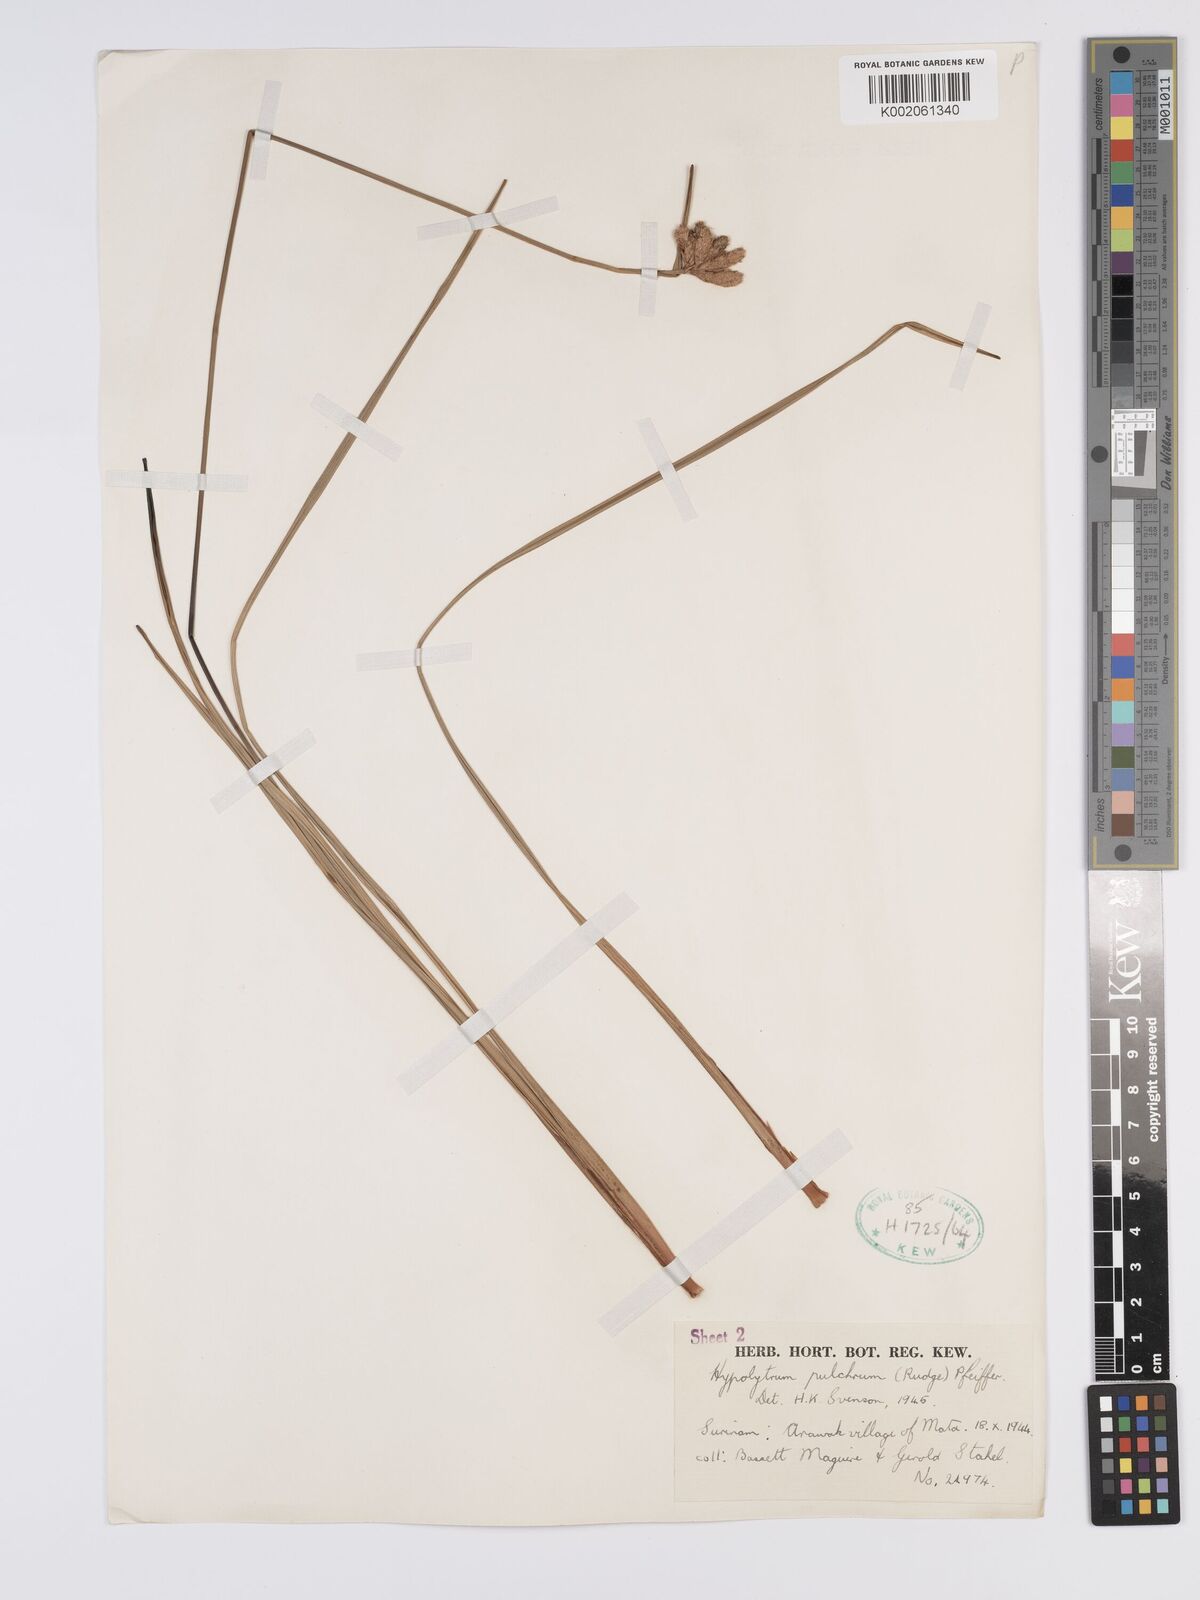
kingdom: Plantae
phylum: Tracheophyta
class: Liliopsida
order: Poales
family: Cyperaceae
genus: Hypolytrum
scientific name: Hypolytrum pulchrum
